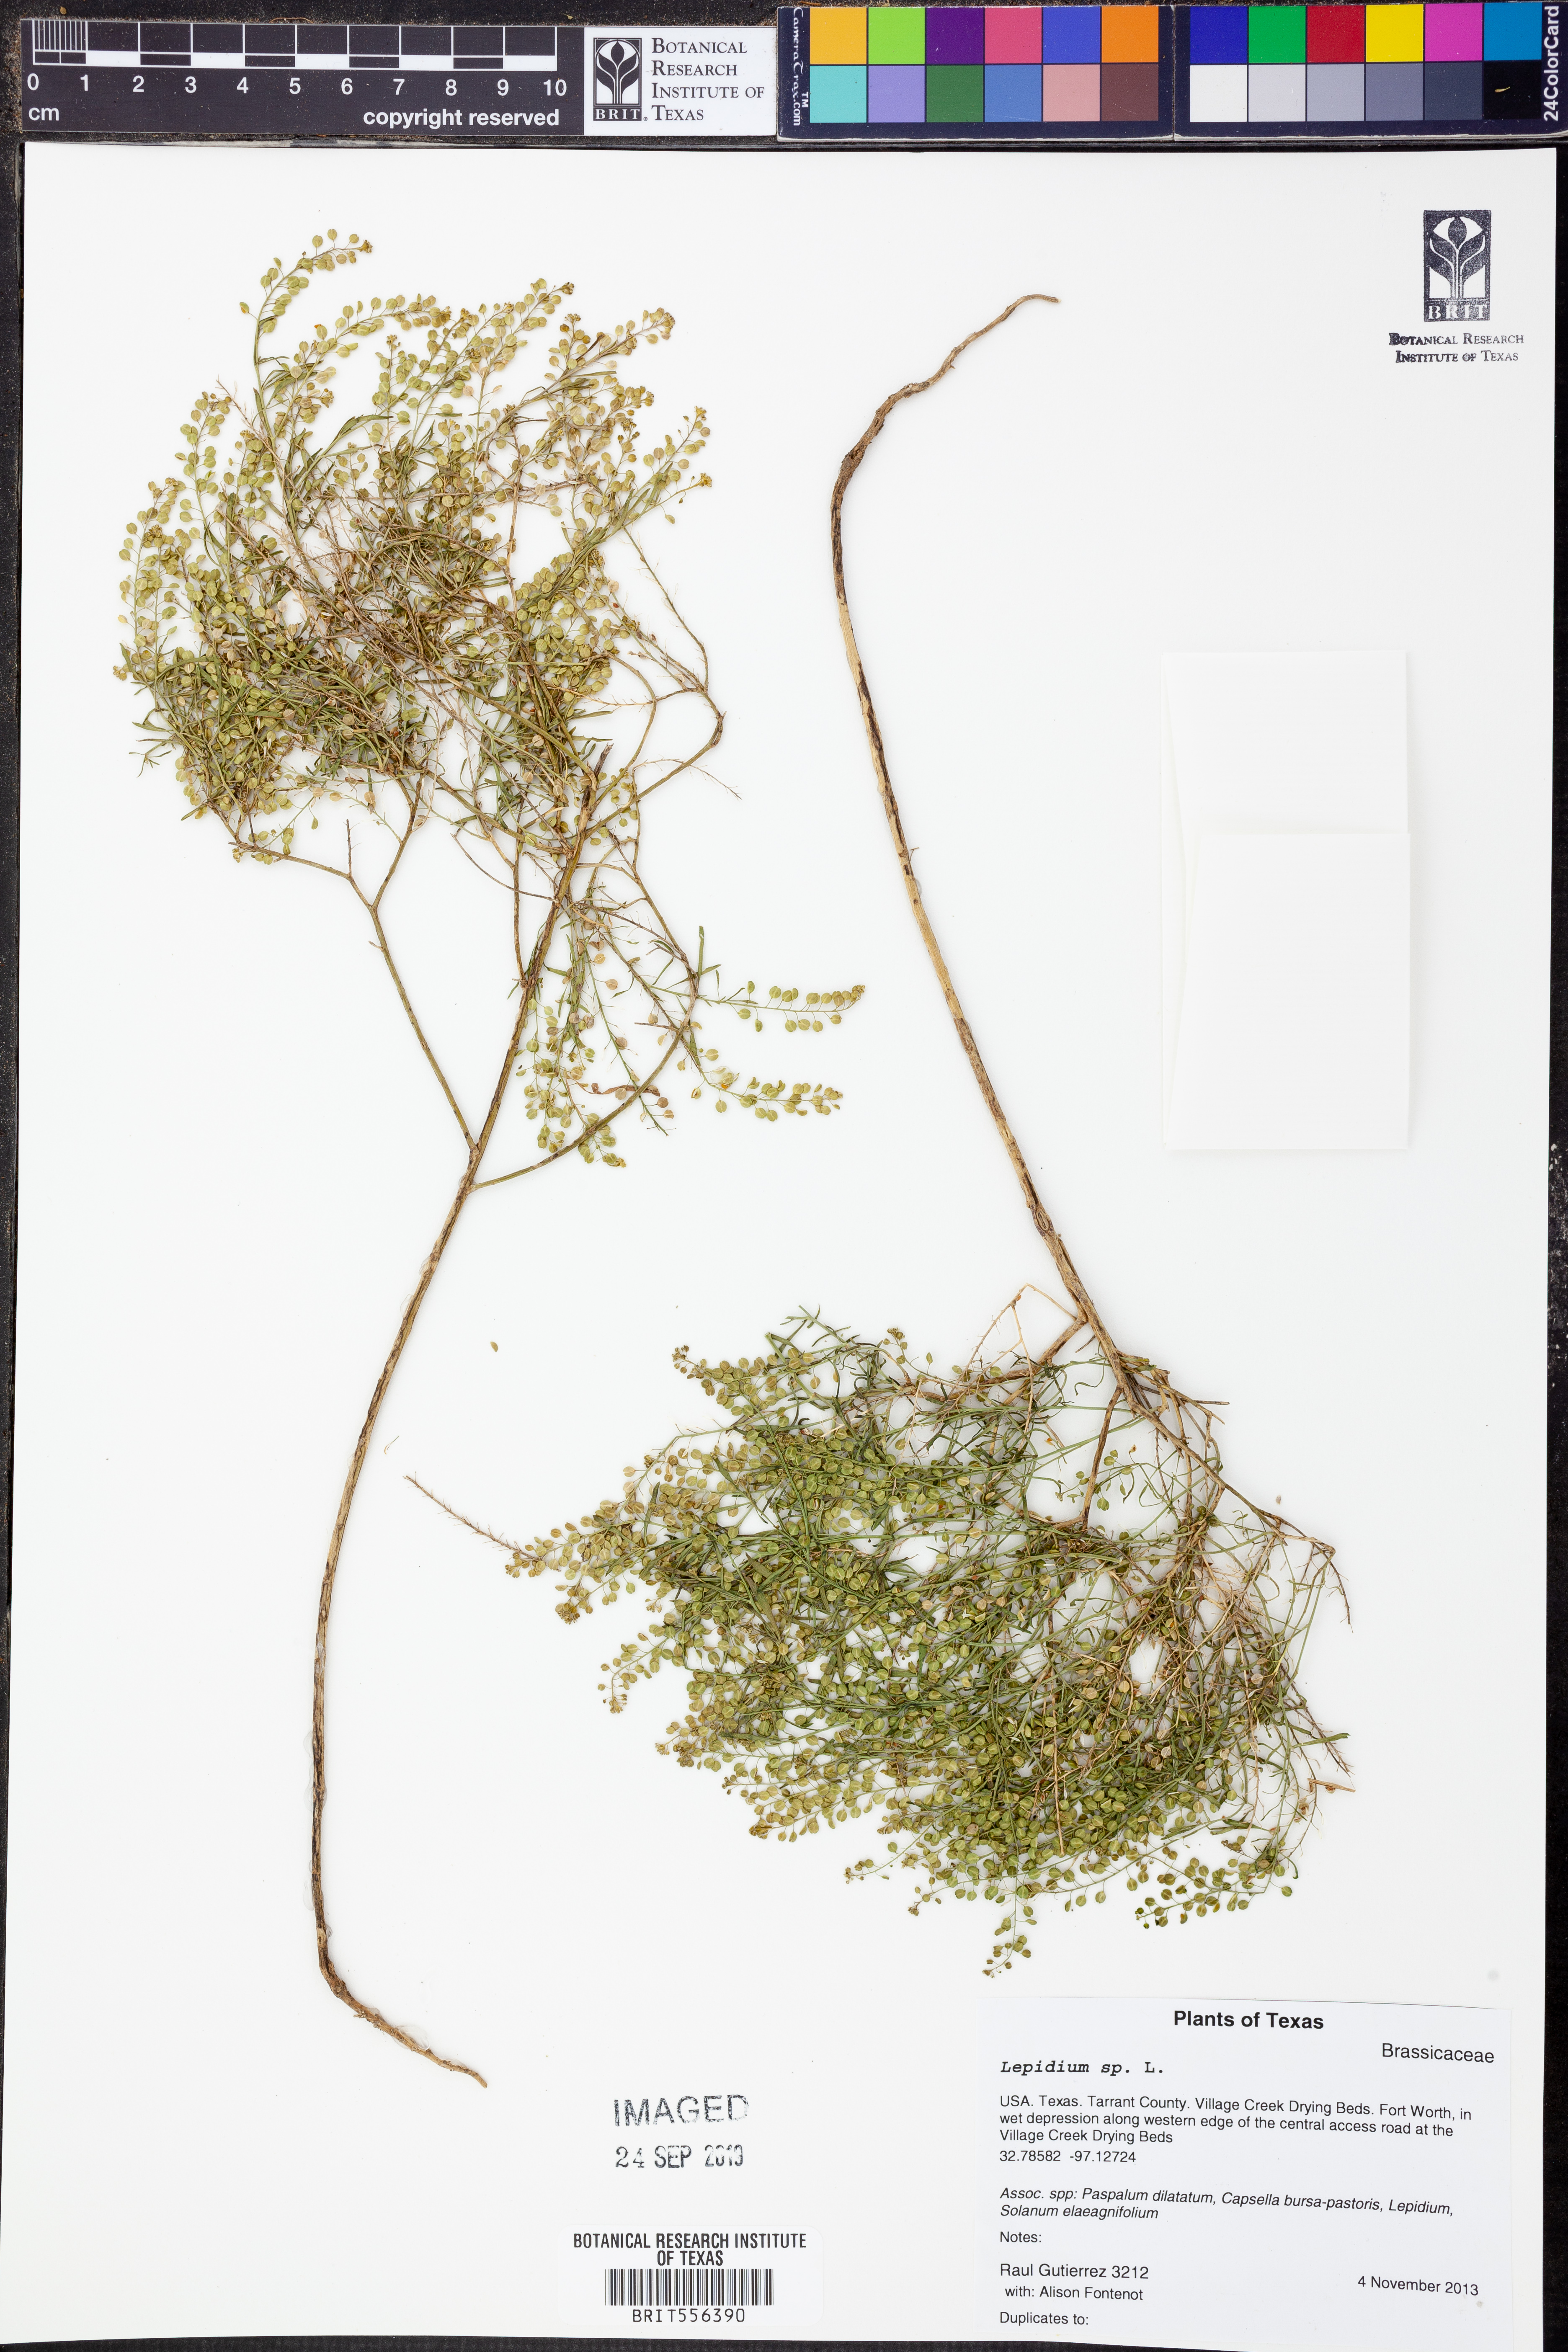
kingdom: Plantae
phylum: Tracheophyta
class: Magnoliopsida
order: Brassicales
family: Brassicaceae
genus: Lepidium
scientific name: Lepidium
